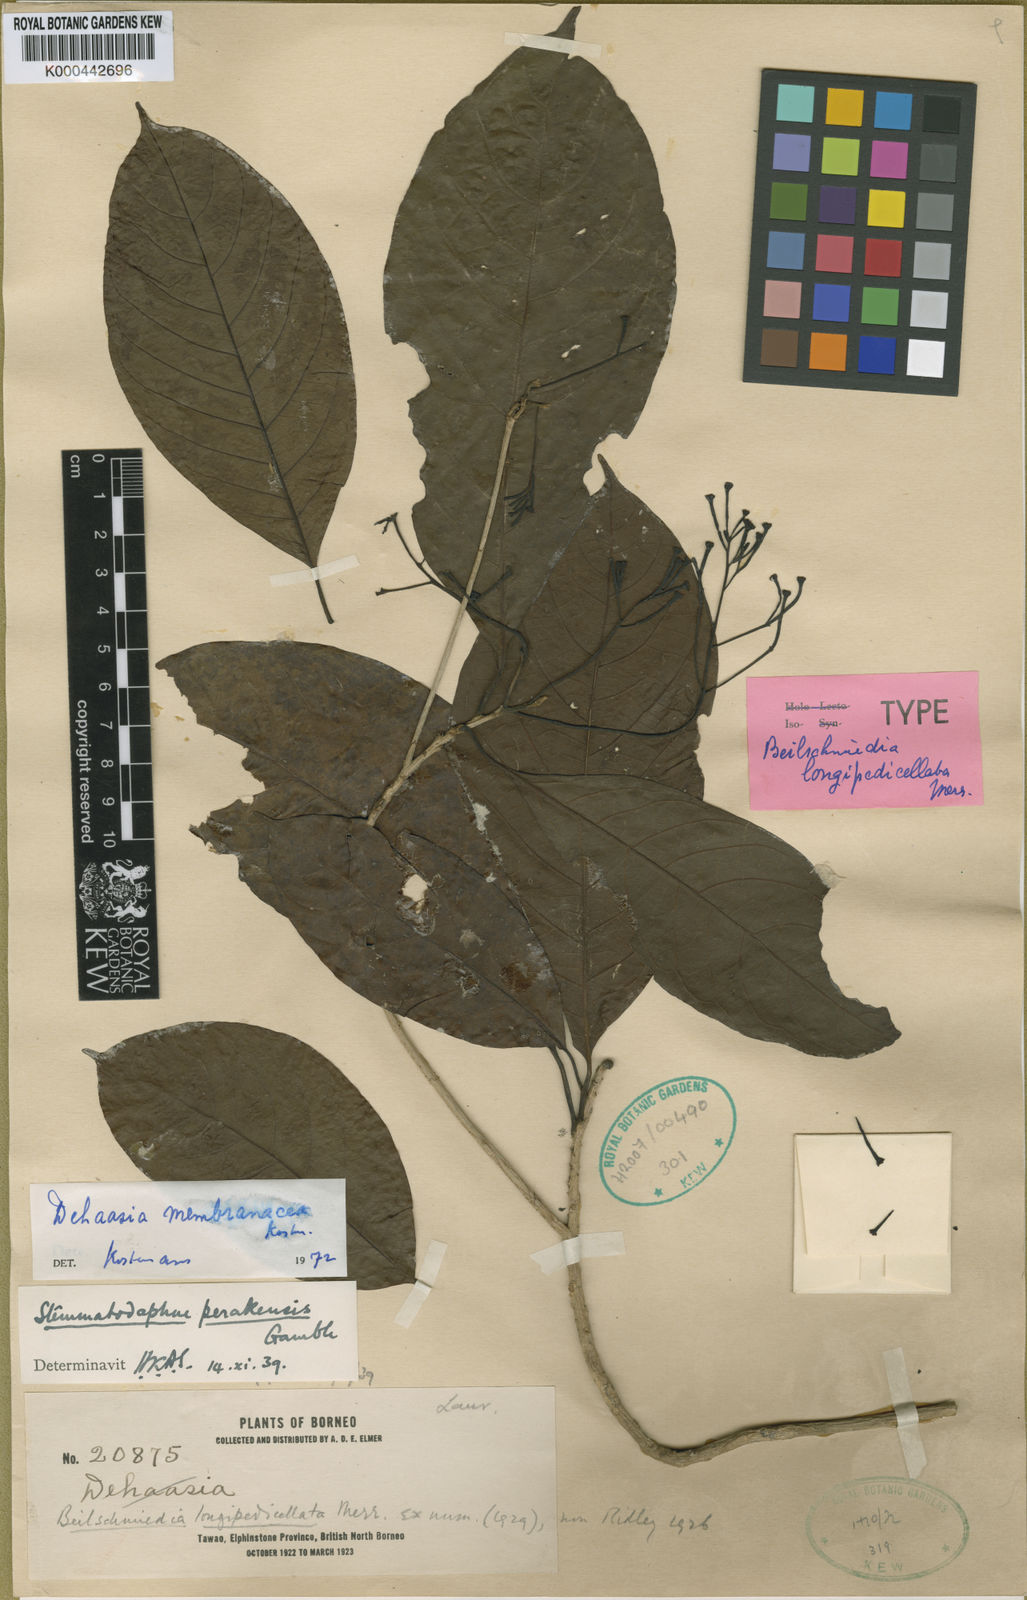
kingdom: Plantae
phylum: Tracheophyta
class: Magnoliopsida
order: Laurales
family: Lauraceae
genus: Dehaasia
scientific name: Dehaasia membranacea
